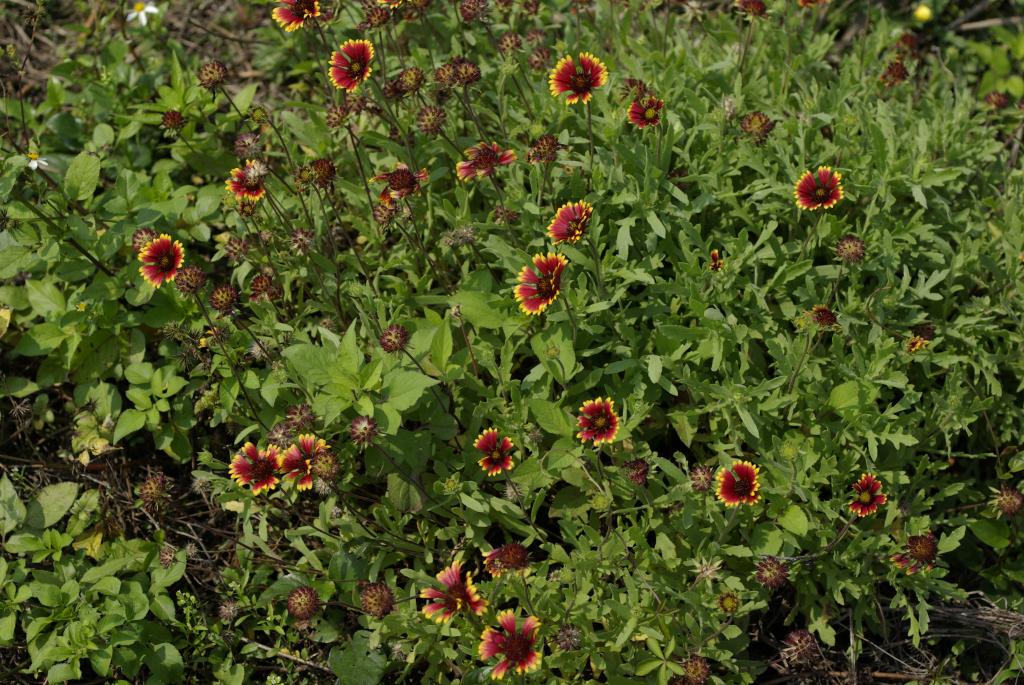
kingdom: Plantae
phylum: Tracheophyta
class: Magnoliopsida
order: Asterales
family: Asteraceae
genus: Gaillardia
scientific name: Gaillardia pulchella
